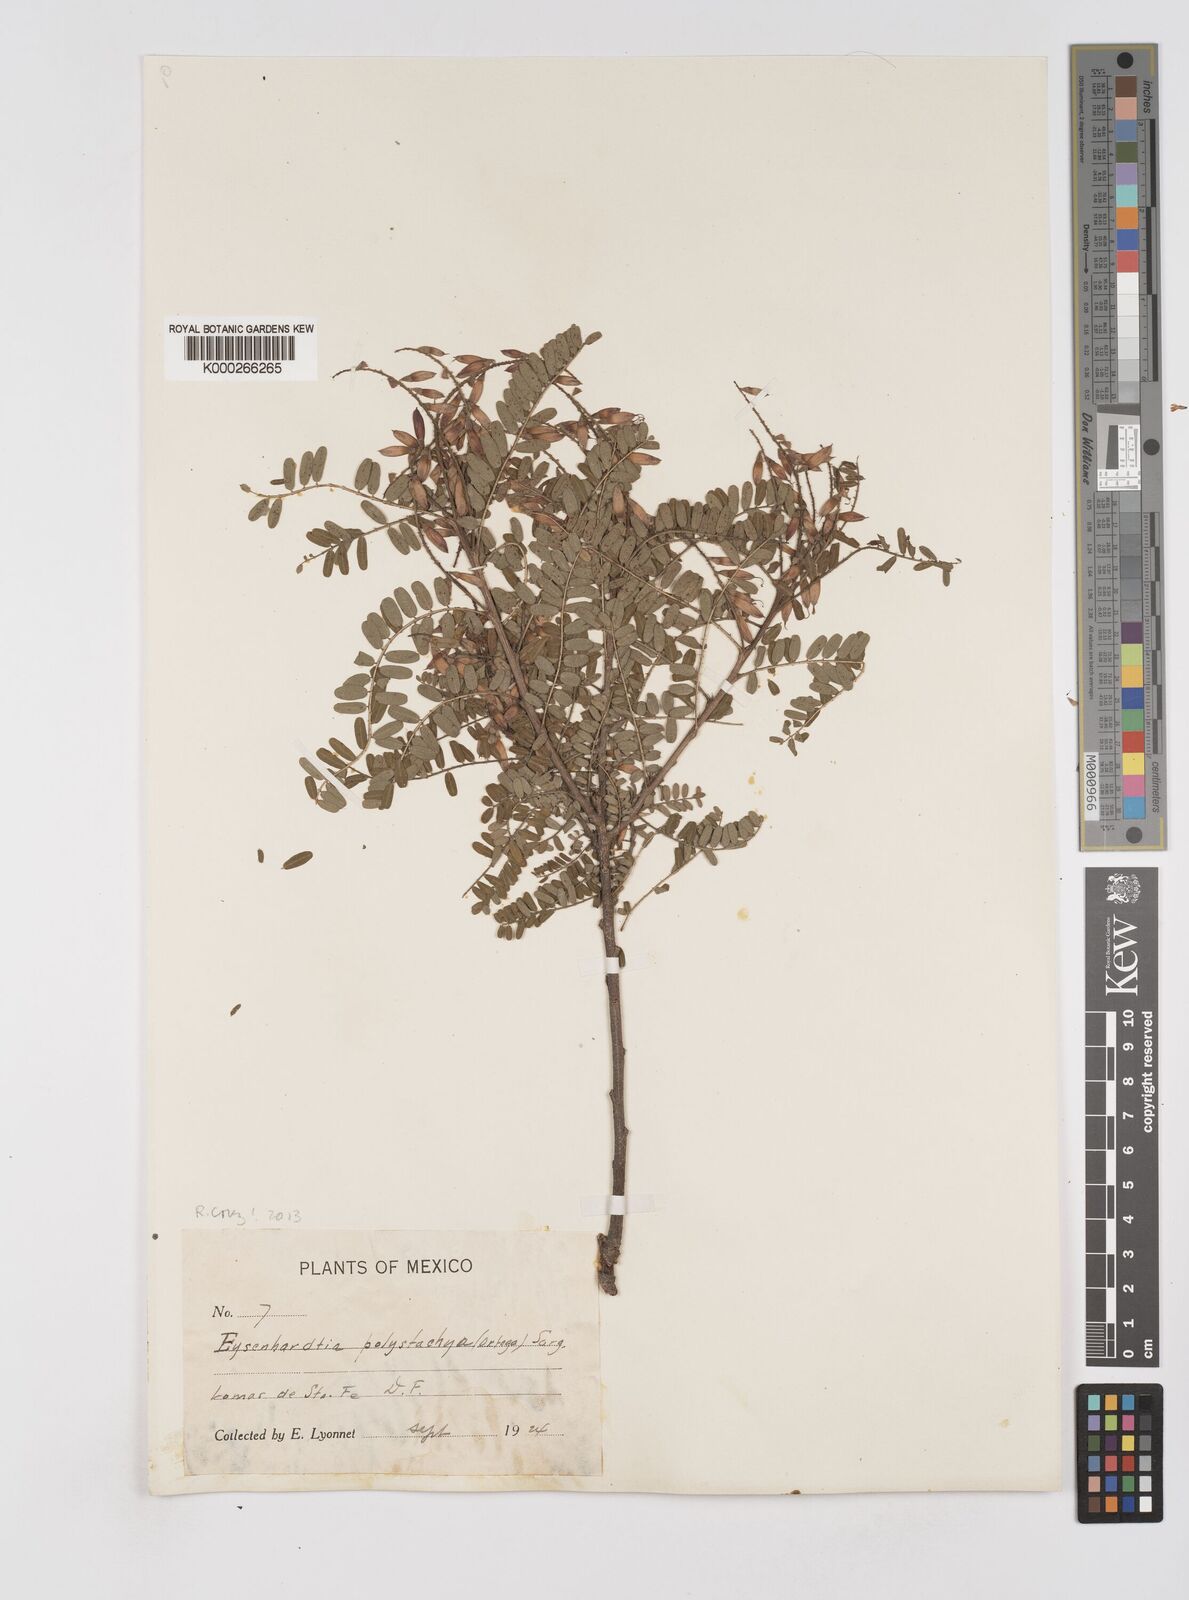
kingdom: Plantae
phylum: Tracheophyta
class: Magnoliopsida
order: Fabales
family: Fabaceae
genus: Eysenhardtia
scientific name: Eysenhardtia polystachya
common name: Kidneywood
